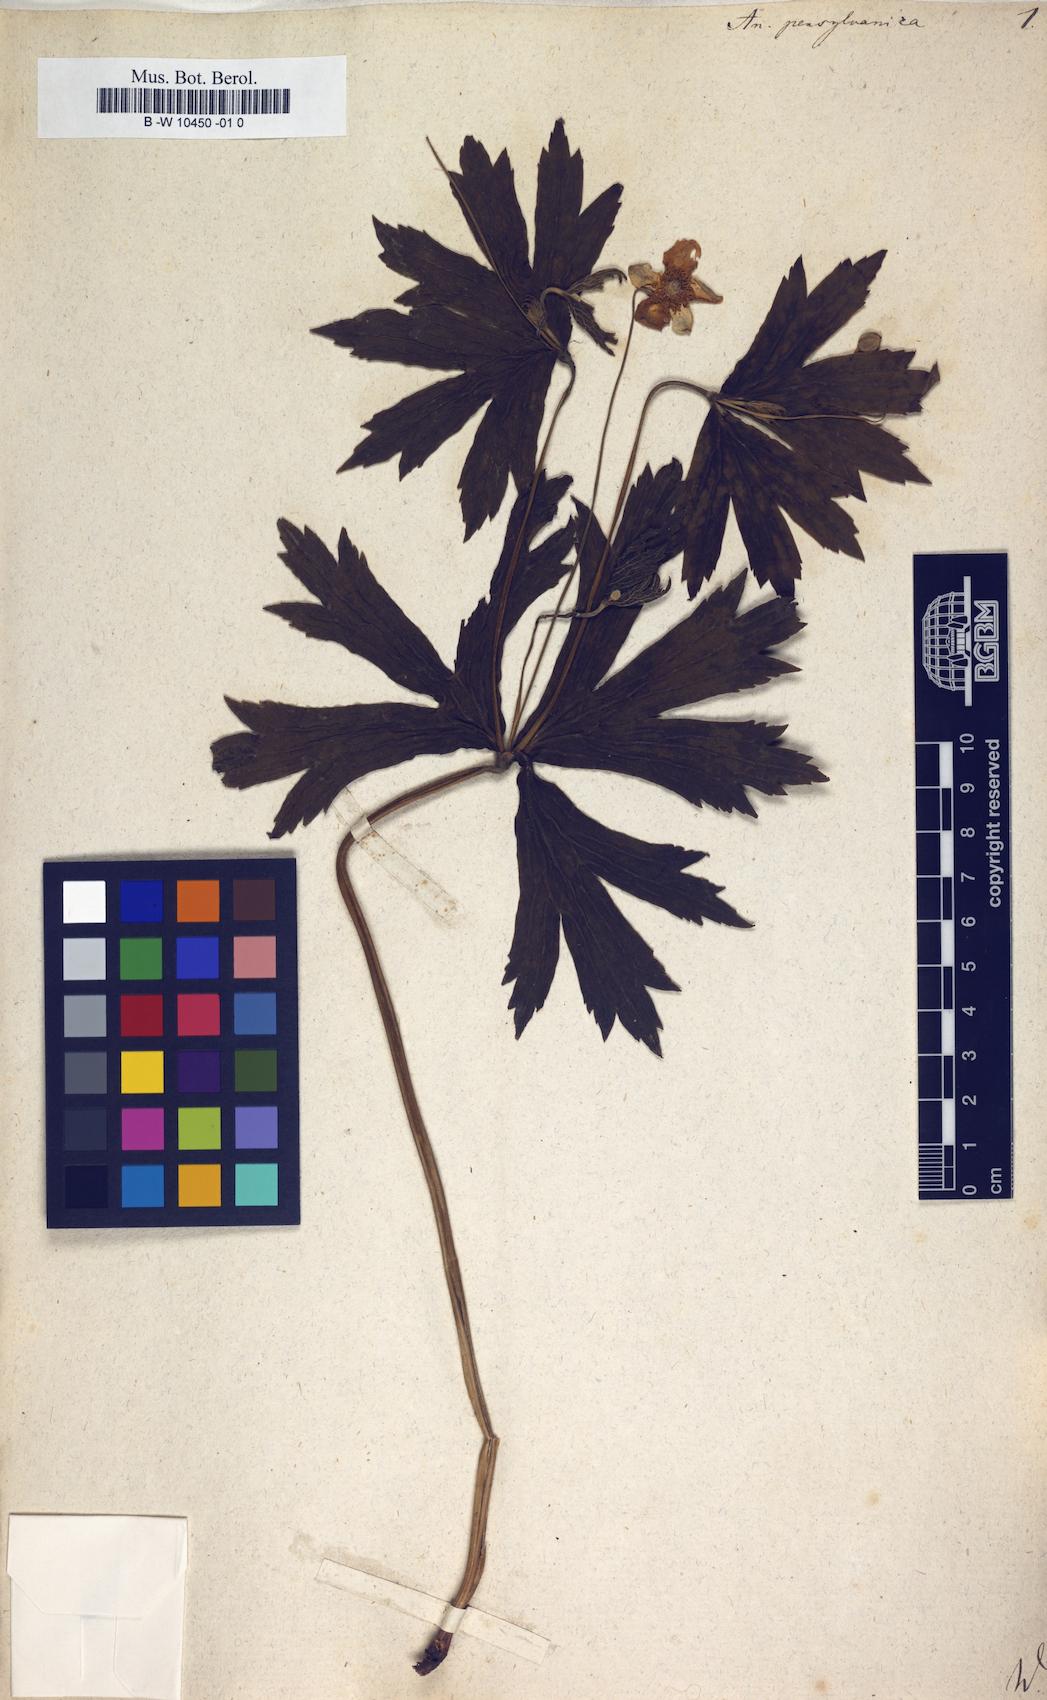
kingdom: Plantae
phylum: Tracheophyta
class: Magnoliopsida
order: Ranunculales
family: Ranunculaceae
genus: Anemonastrum
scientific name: Anemonastrum dichotomum
